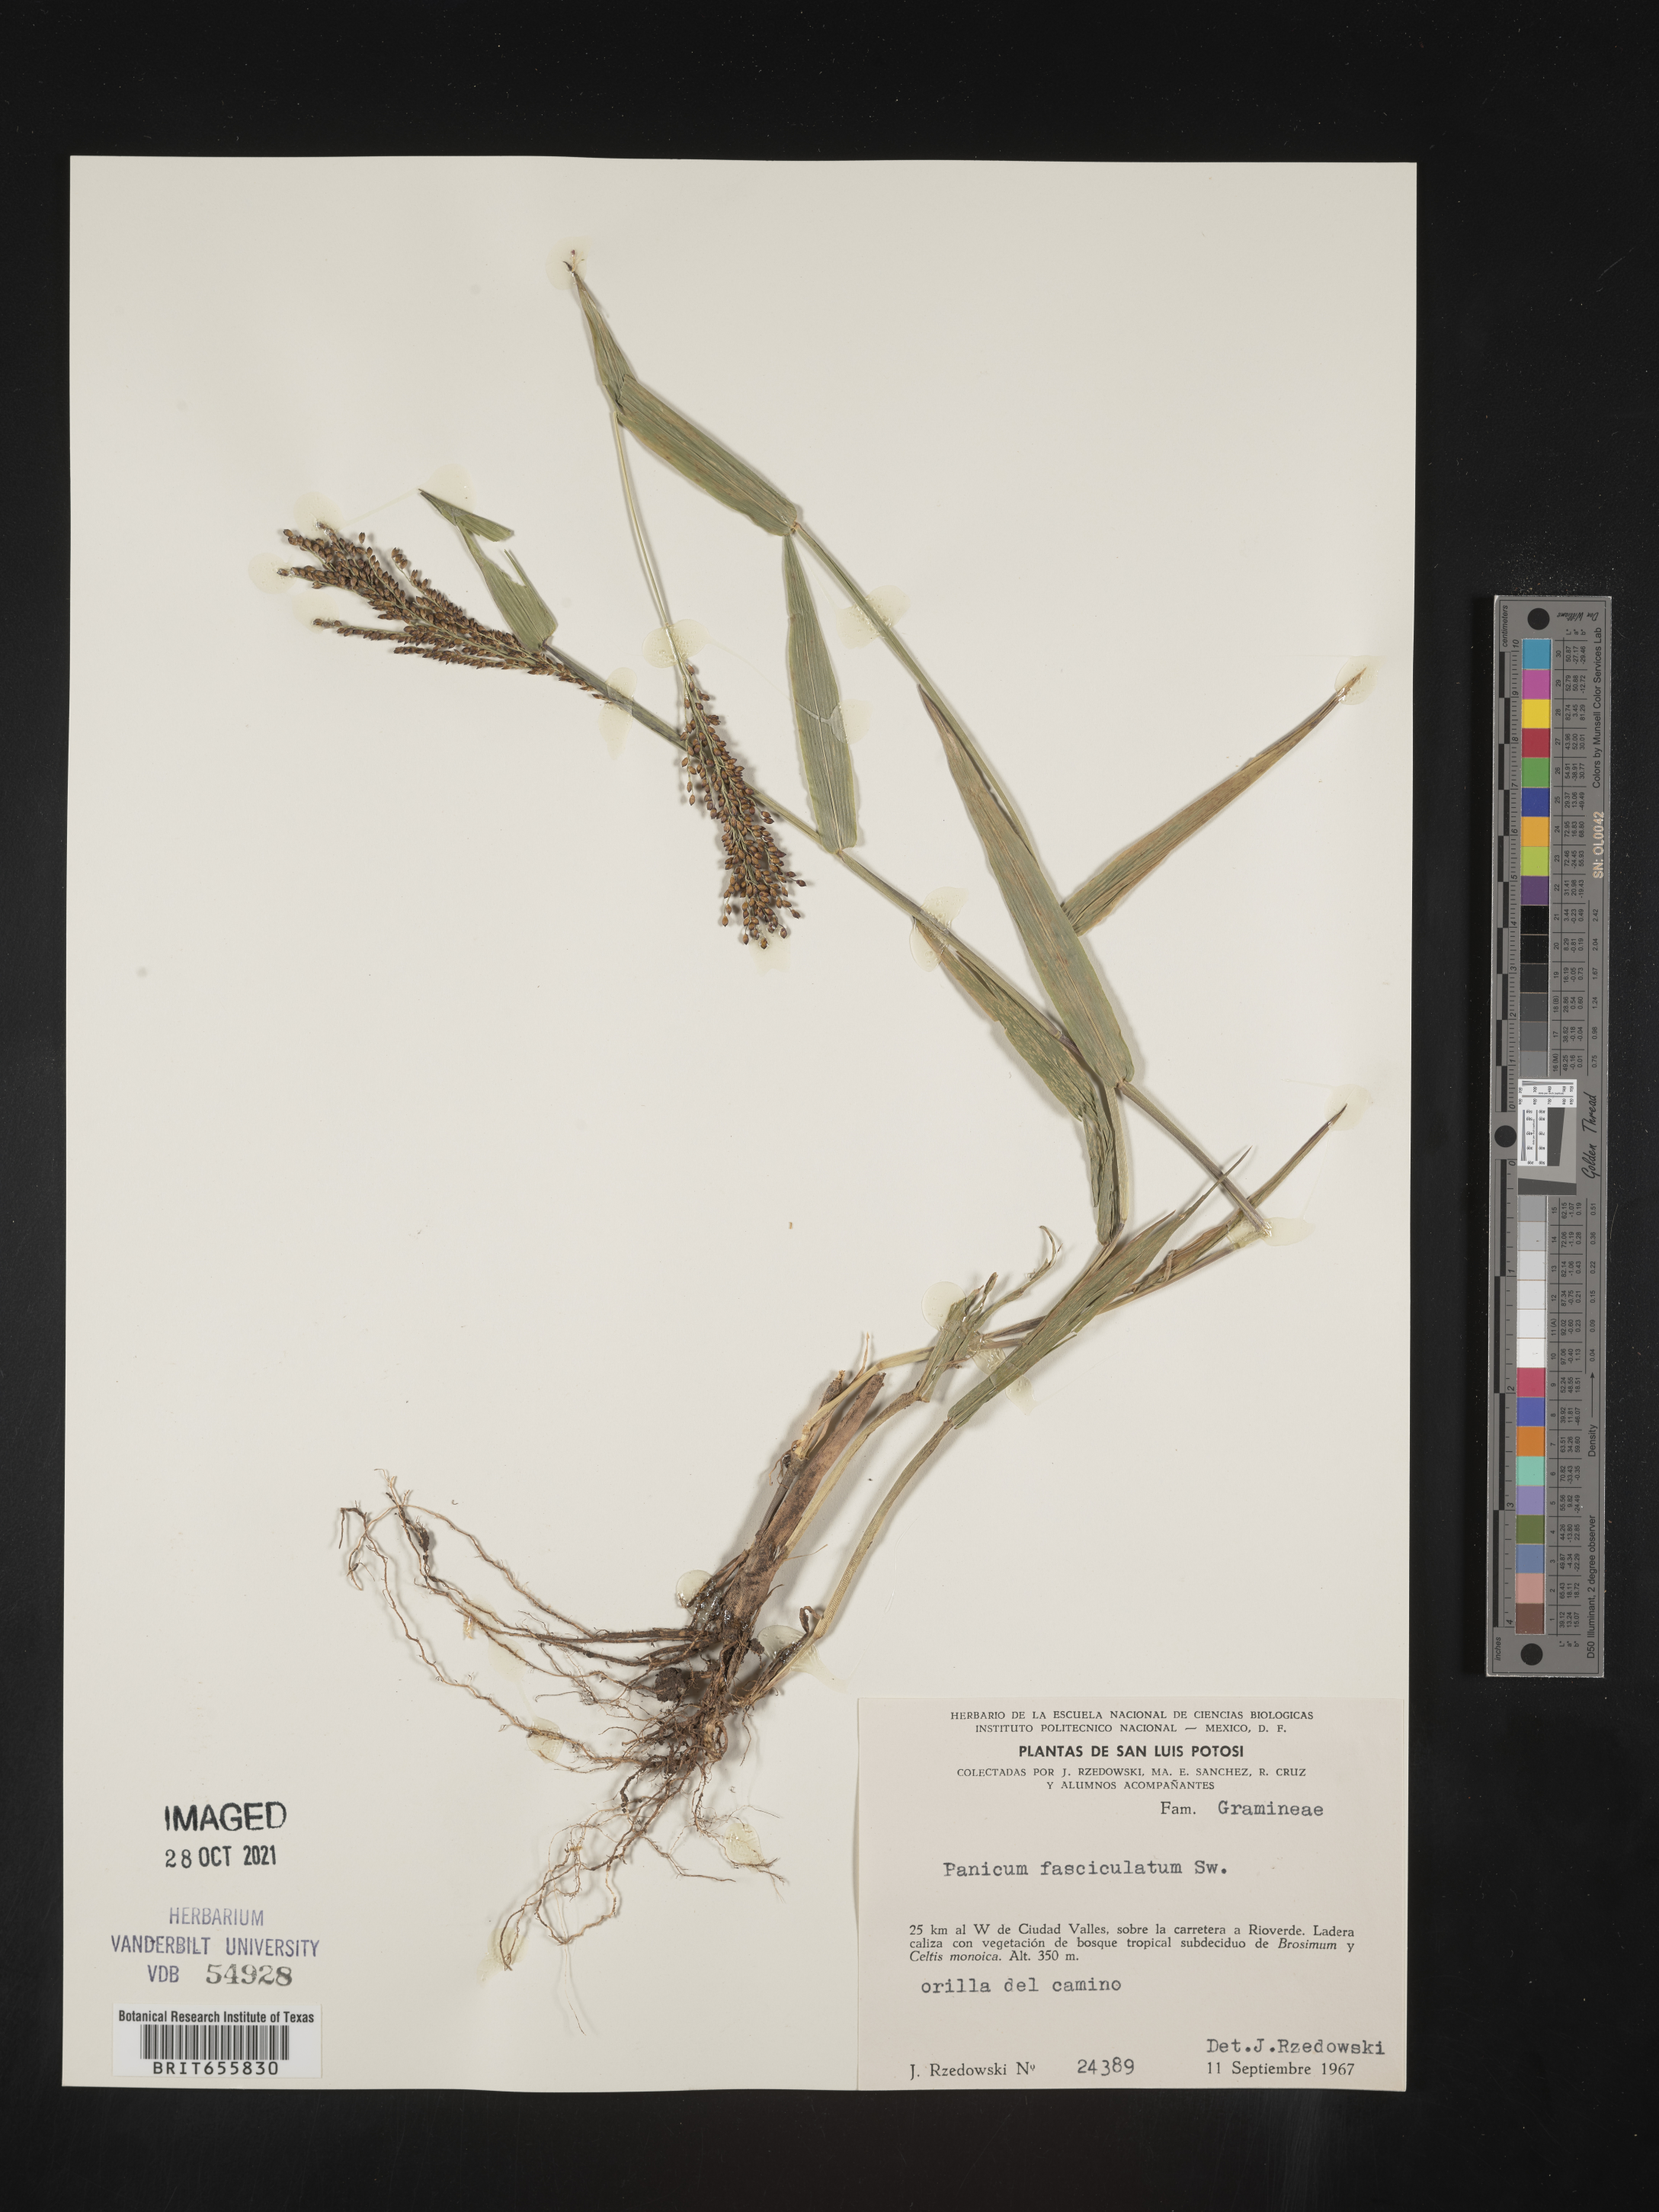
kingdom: Plantae
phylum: Tracheophyta
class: Liliopsida
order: Poales
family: Poaceae
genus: Panicum
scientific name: Panicum
